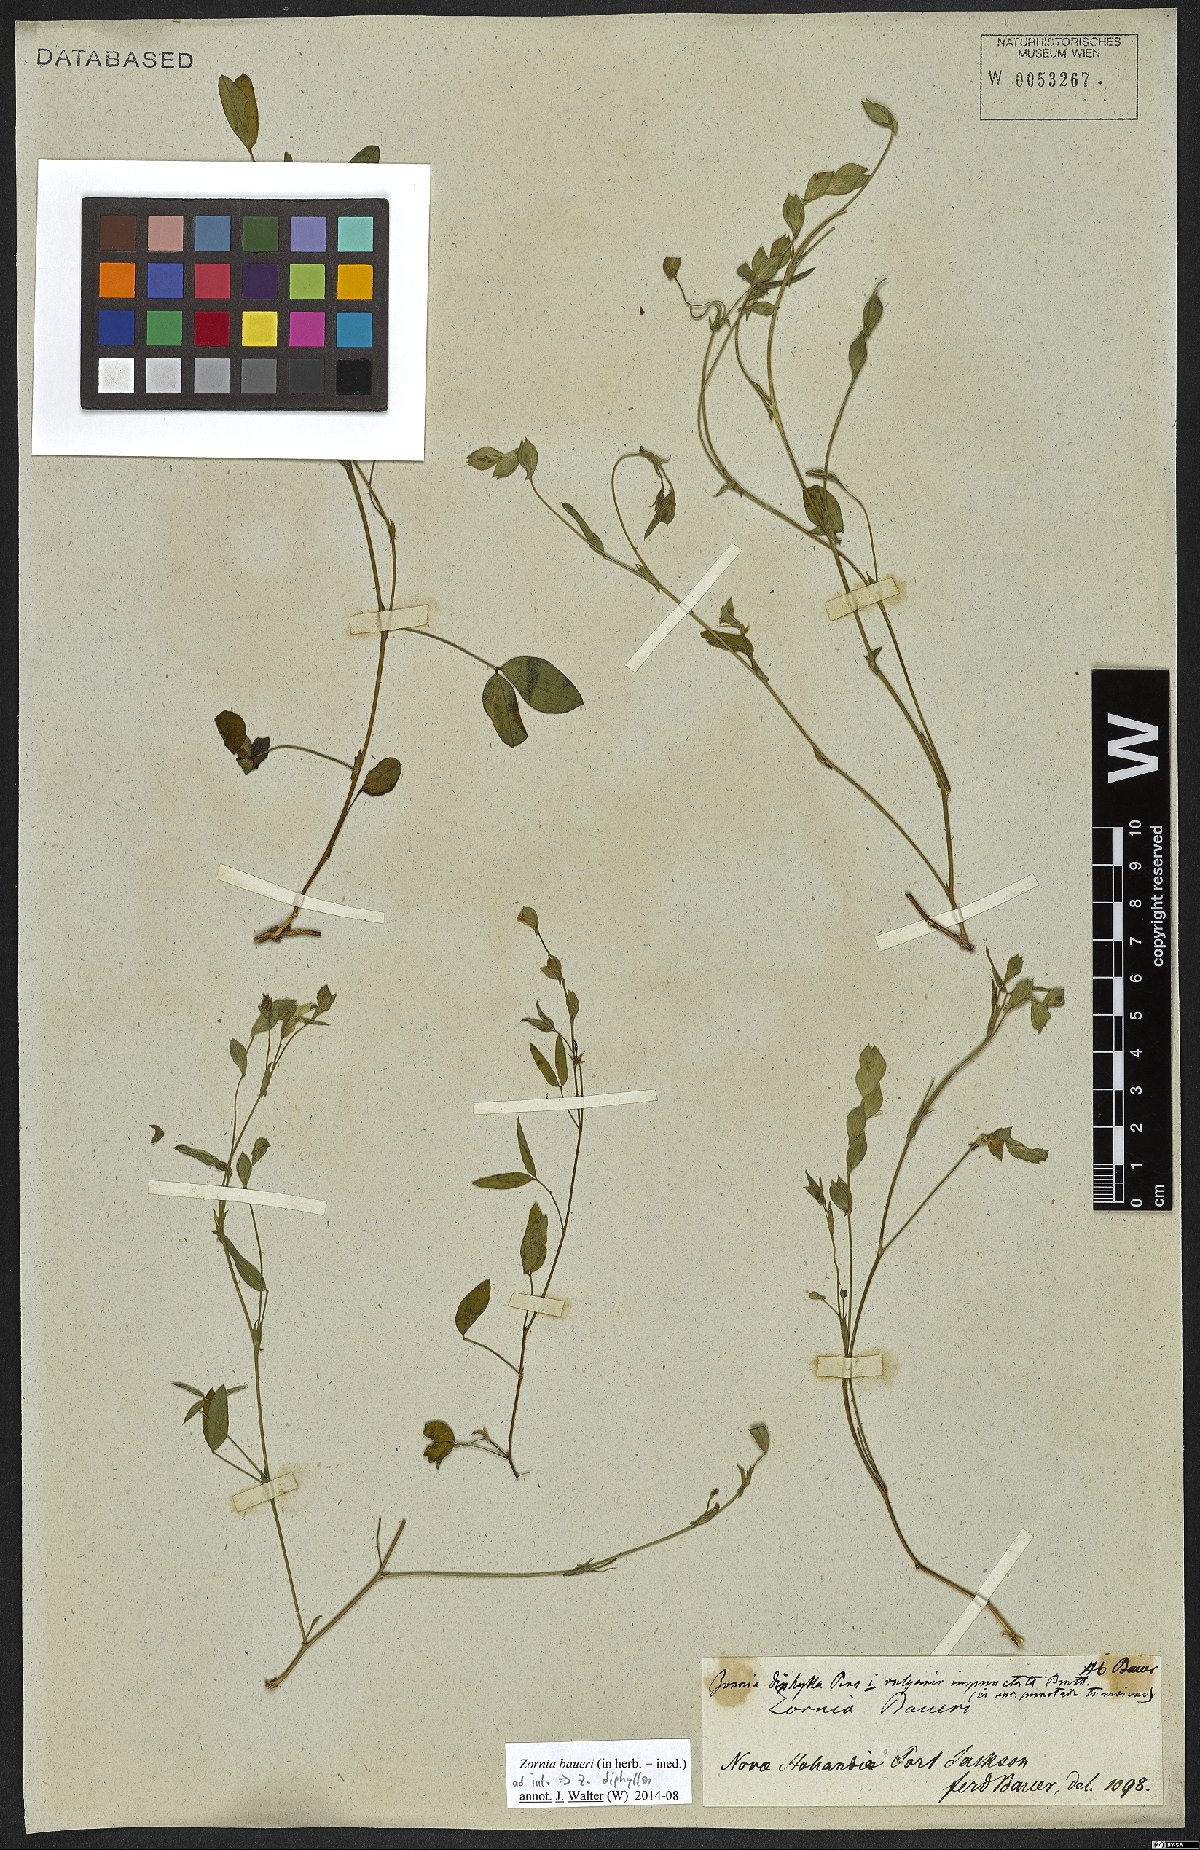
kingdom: Plantae
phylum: Tracheophyta
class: Magnoliopsida
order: Fabales
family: Fabaceae
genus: Zornia
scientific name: Zornia diphylla
